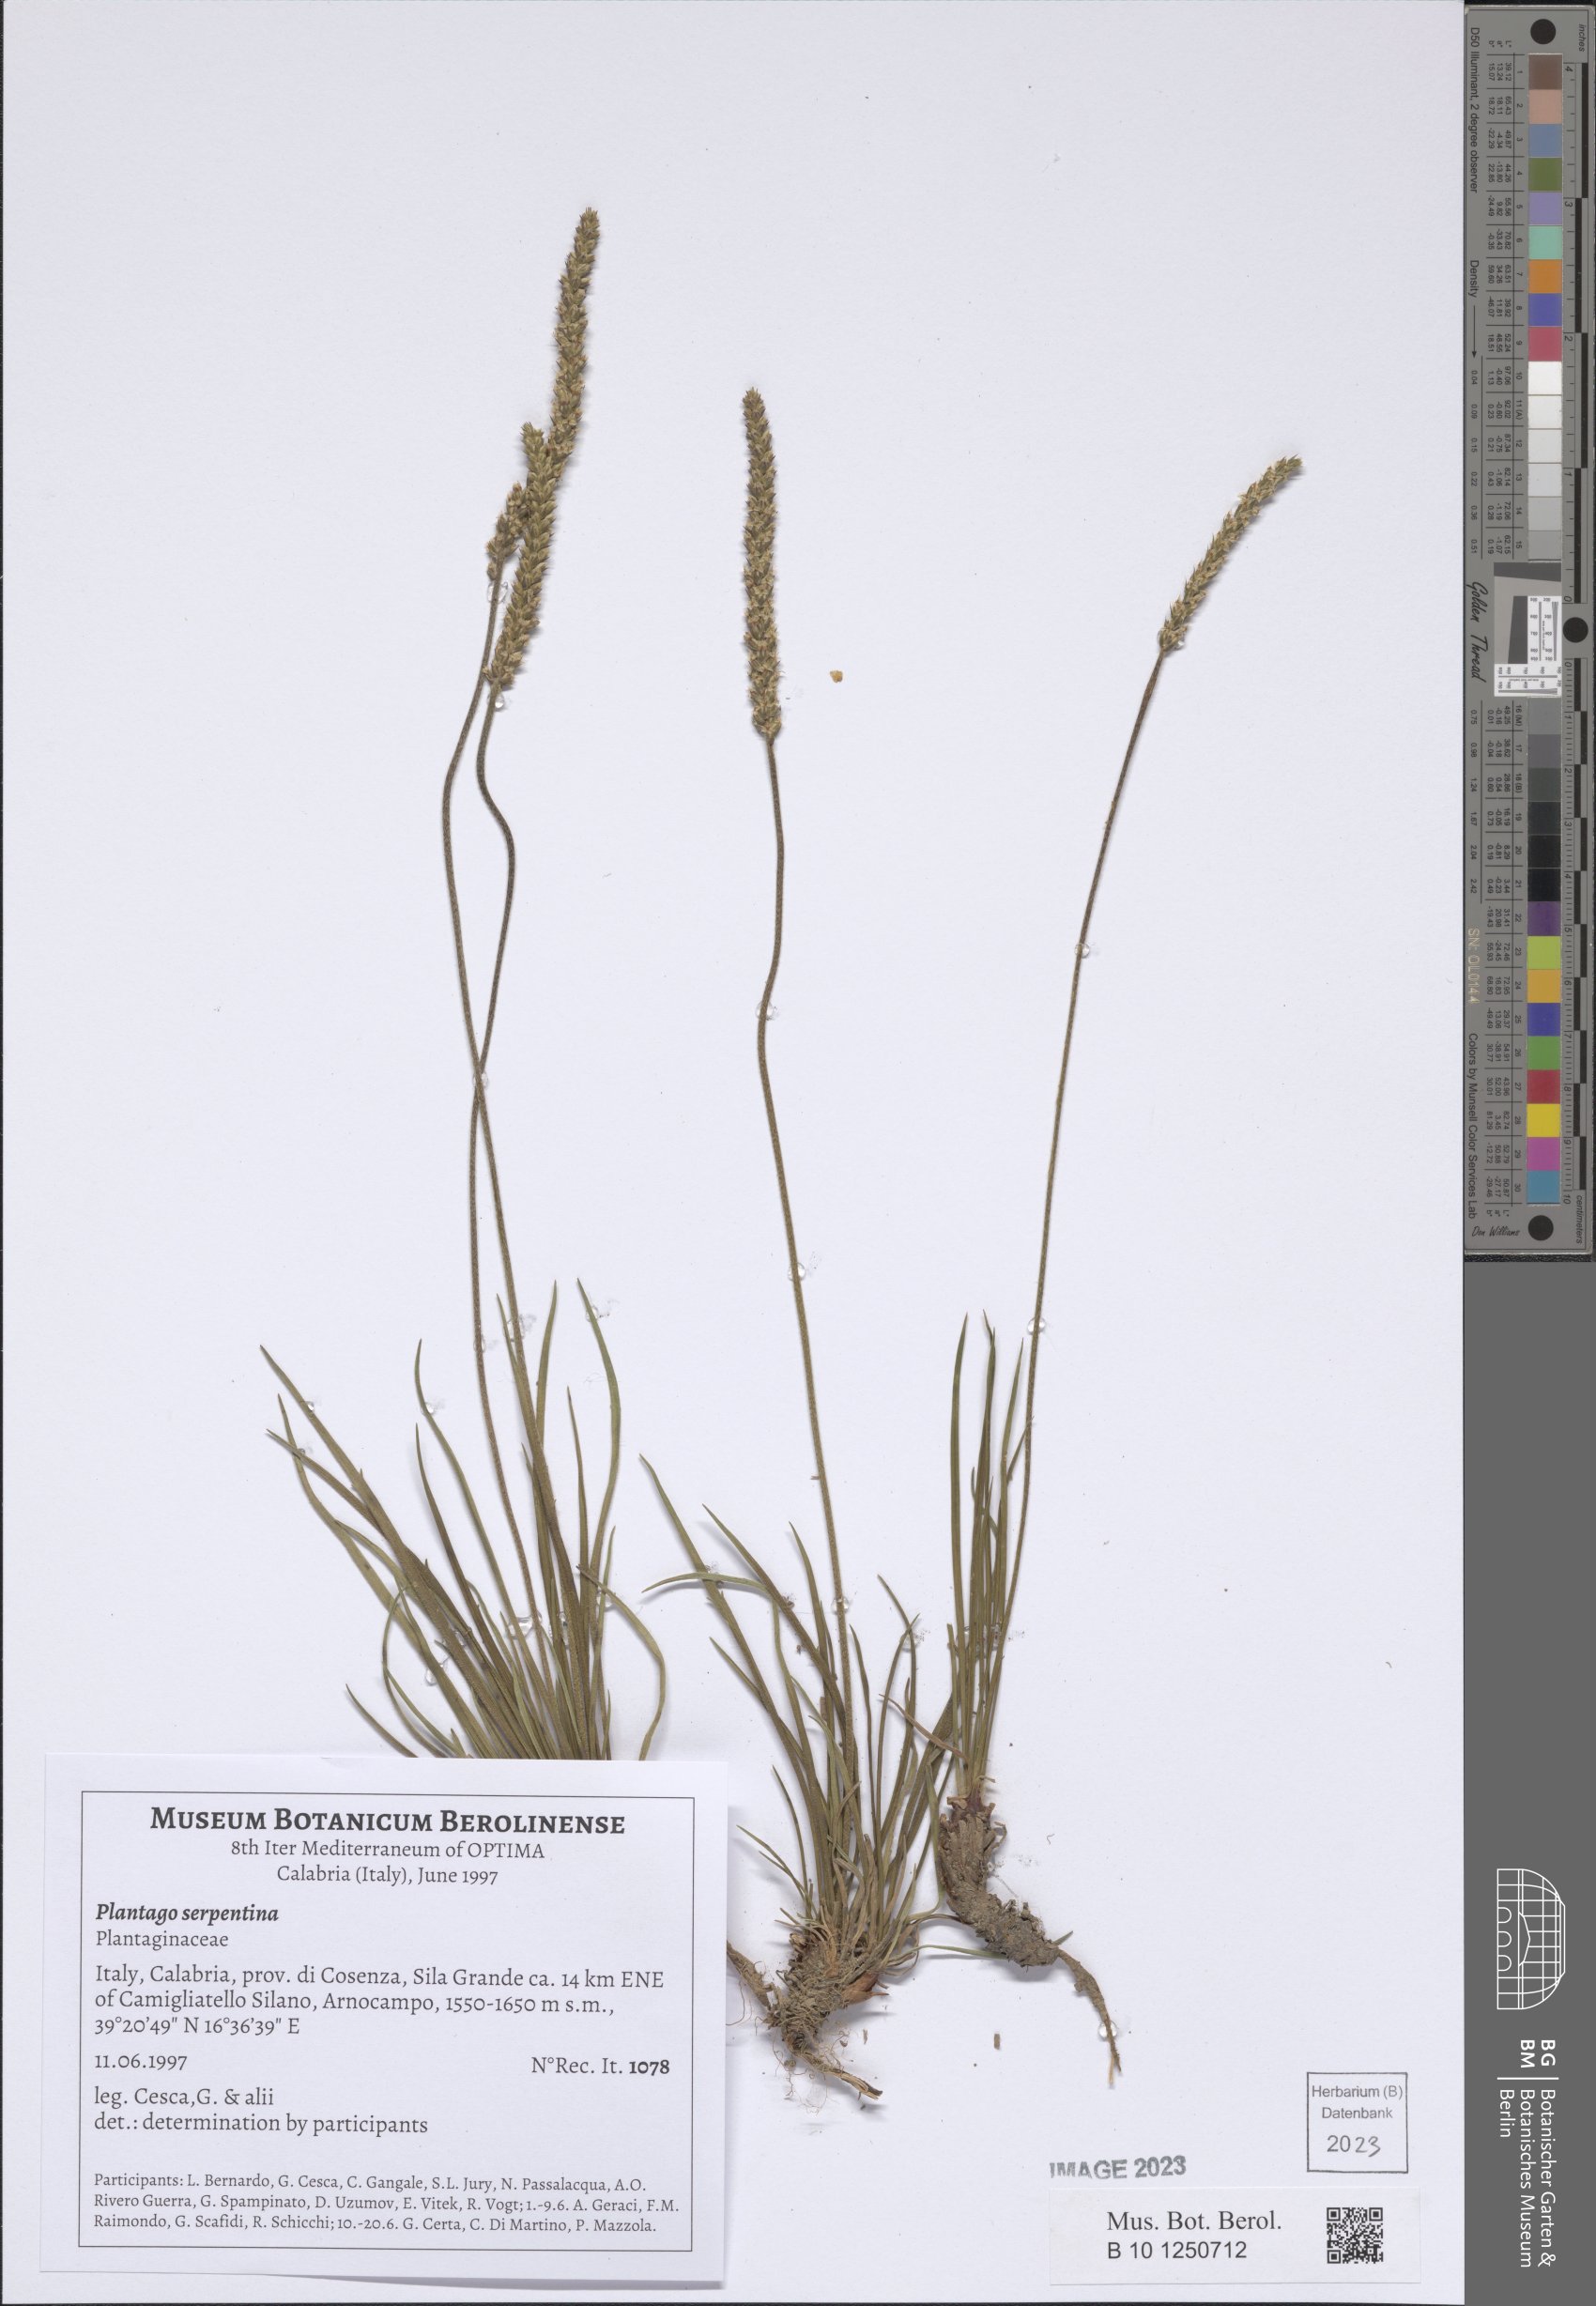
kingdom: Plantae
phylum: Tracheophyta
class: Magnoliopsida
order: Lamiales
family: Plantaginaceae
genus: Plantago
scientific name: Plantago strictissima
